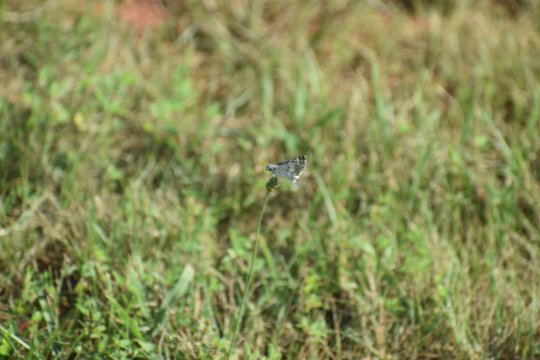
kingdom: Animalia
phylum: Arthropoda
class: Insecta
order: Lepidoptera
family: Hesperiidae
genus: Burnsius
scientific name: Burnsius
